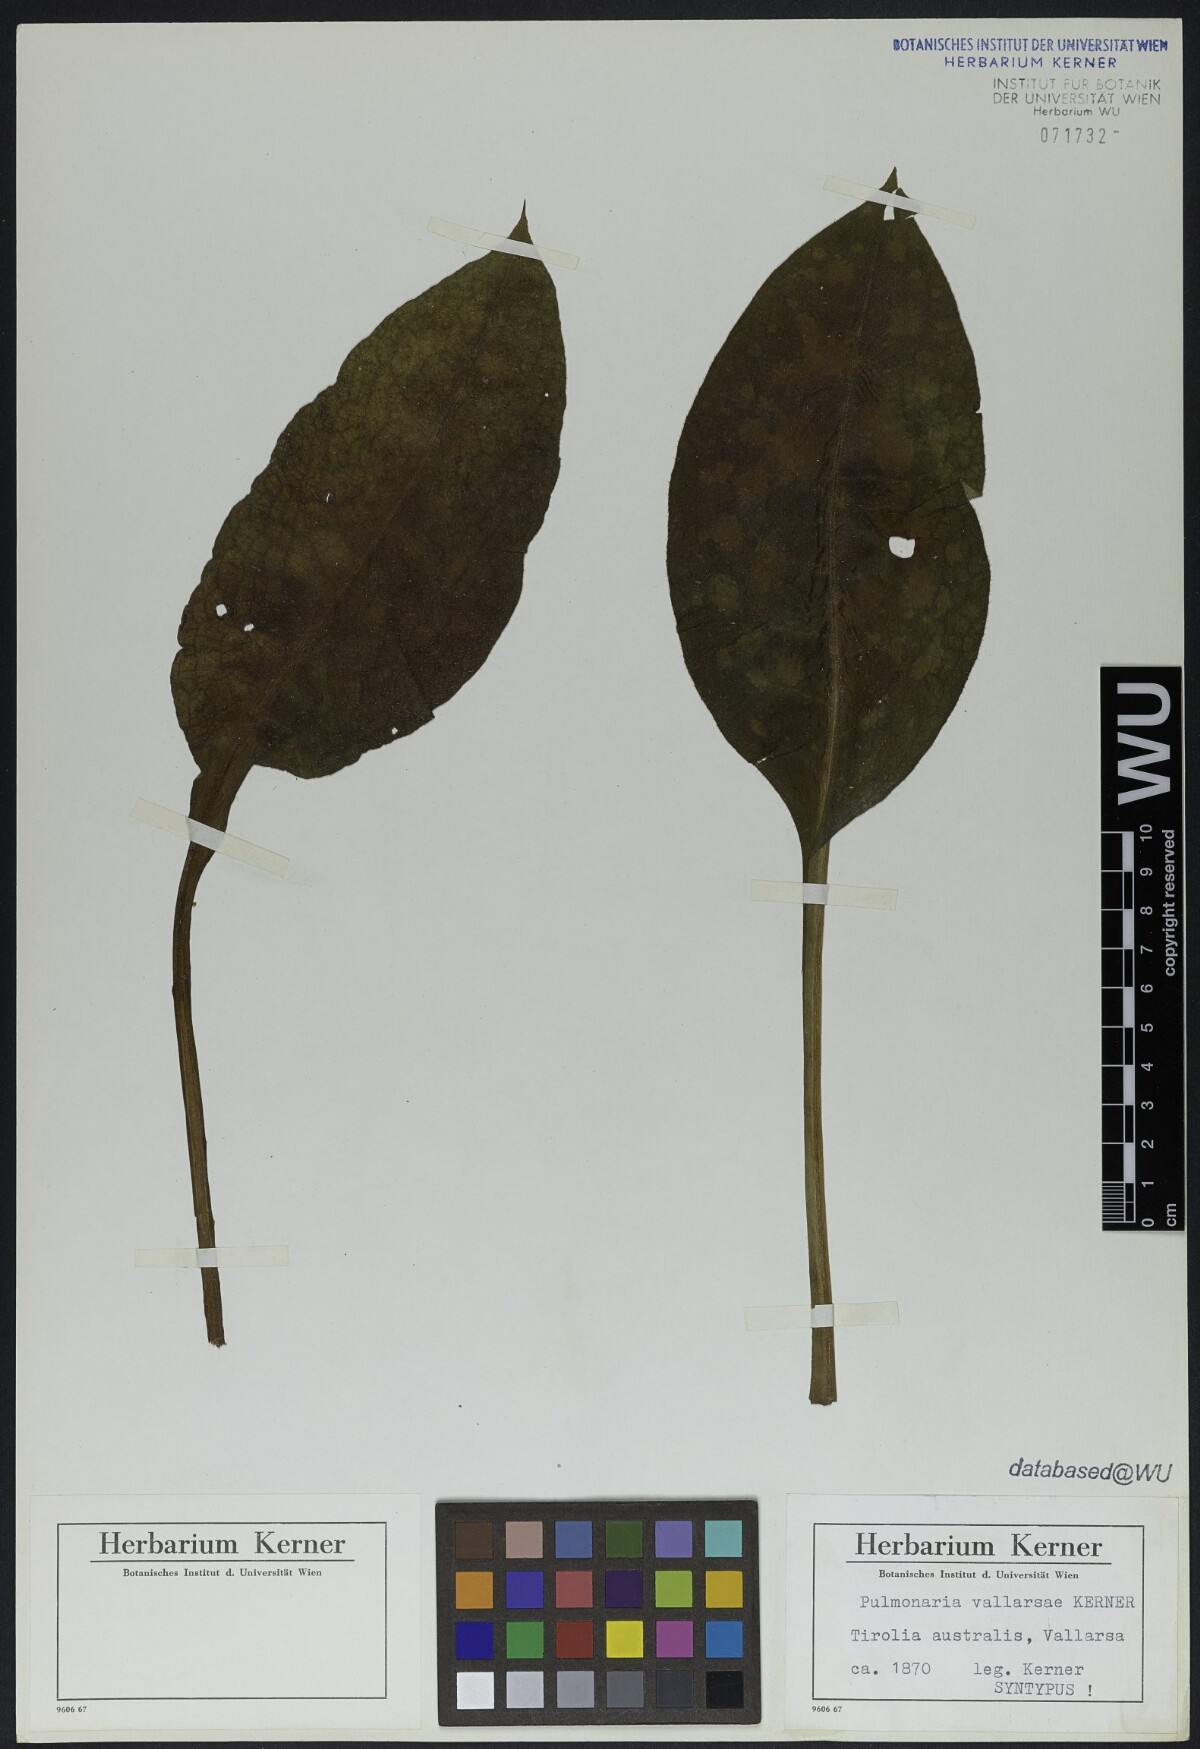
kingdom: Plantae
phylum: Tracheophyta
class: Magnoliopsida
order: Boraginales
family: Boraginaceae
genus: Pulmonaria
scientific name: Pulmonaria hirta
